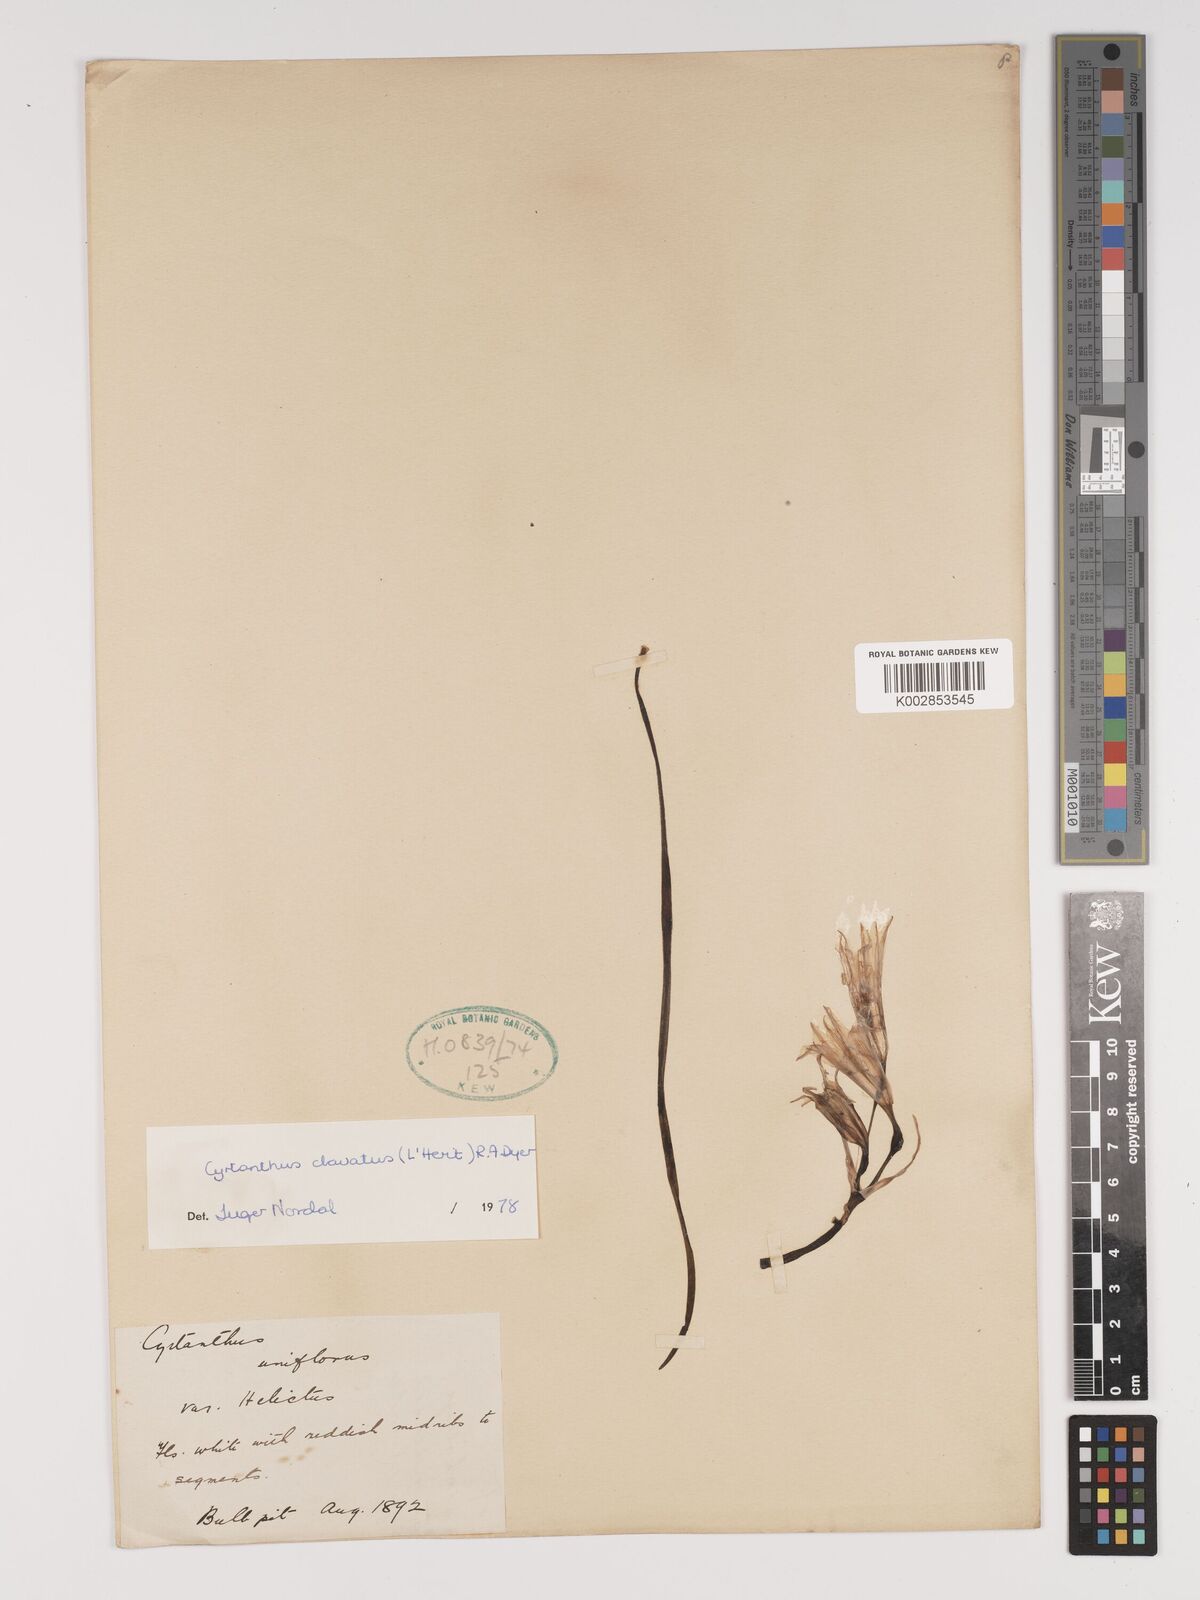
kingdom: Plantae
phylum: Tracheophyta
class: Liliopsida
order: Asparagales
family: Amaryllidaceae
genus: Cyrtanthus
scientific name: Cyrtanthus clavatus
